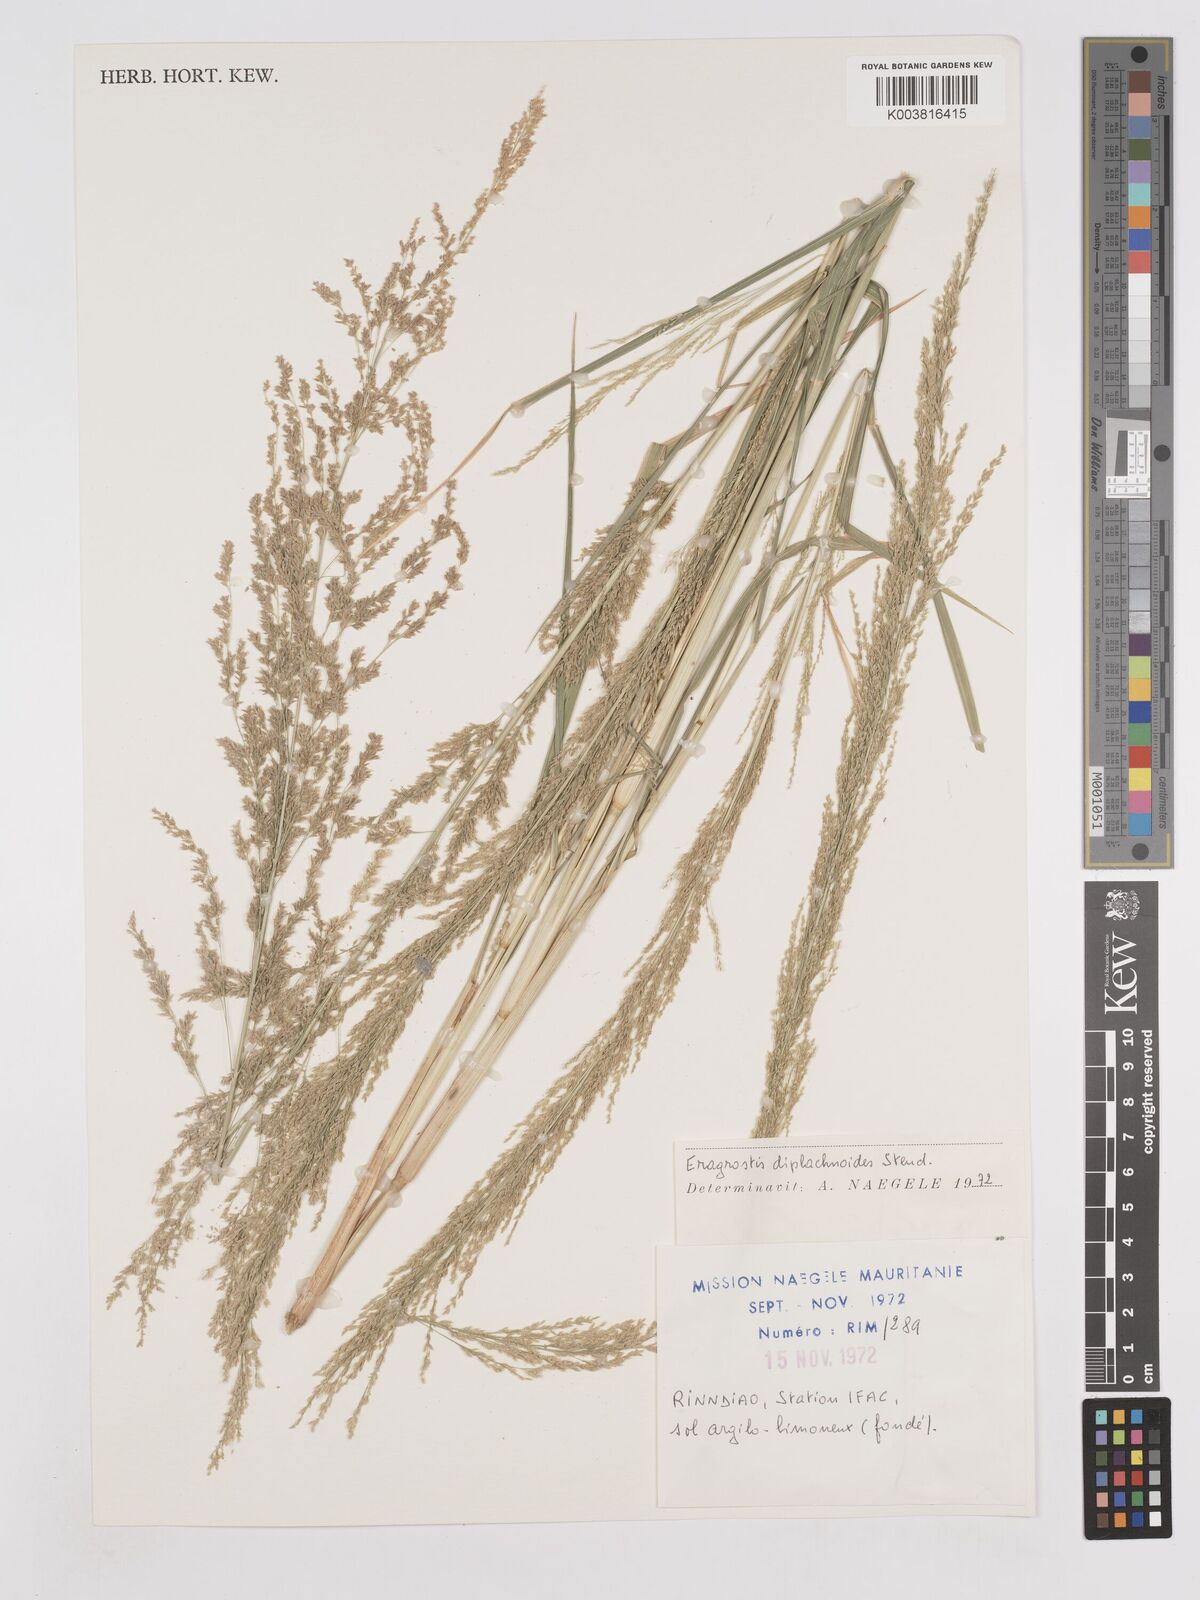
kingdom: Plantae
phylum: Tracheophyta
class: Liliopsida
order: Poales
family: Poaceae
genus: Eragrostis
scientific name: Eragrostis japonica
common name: Pond lovegrass
